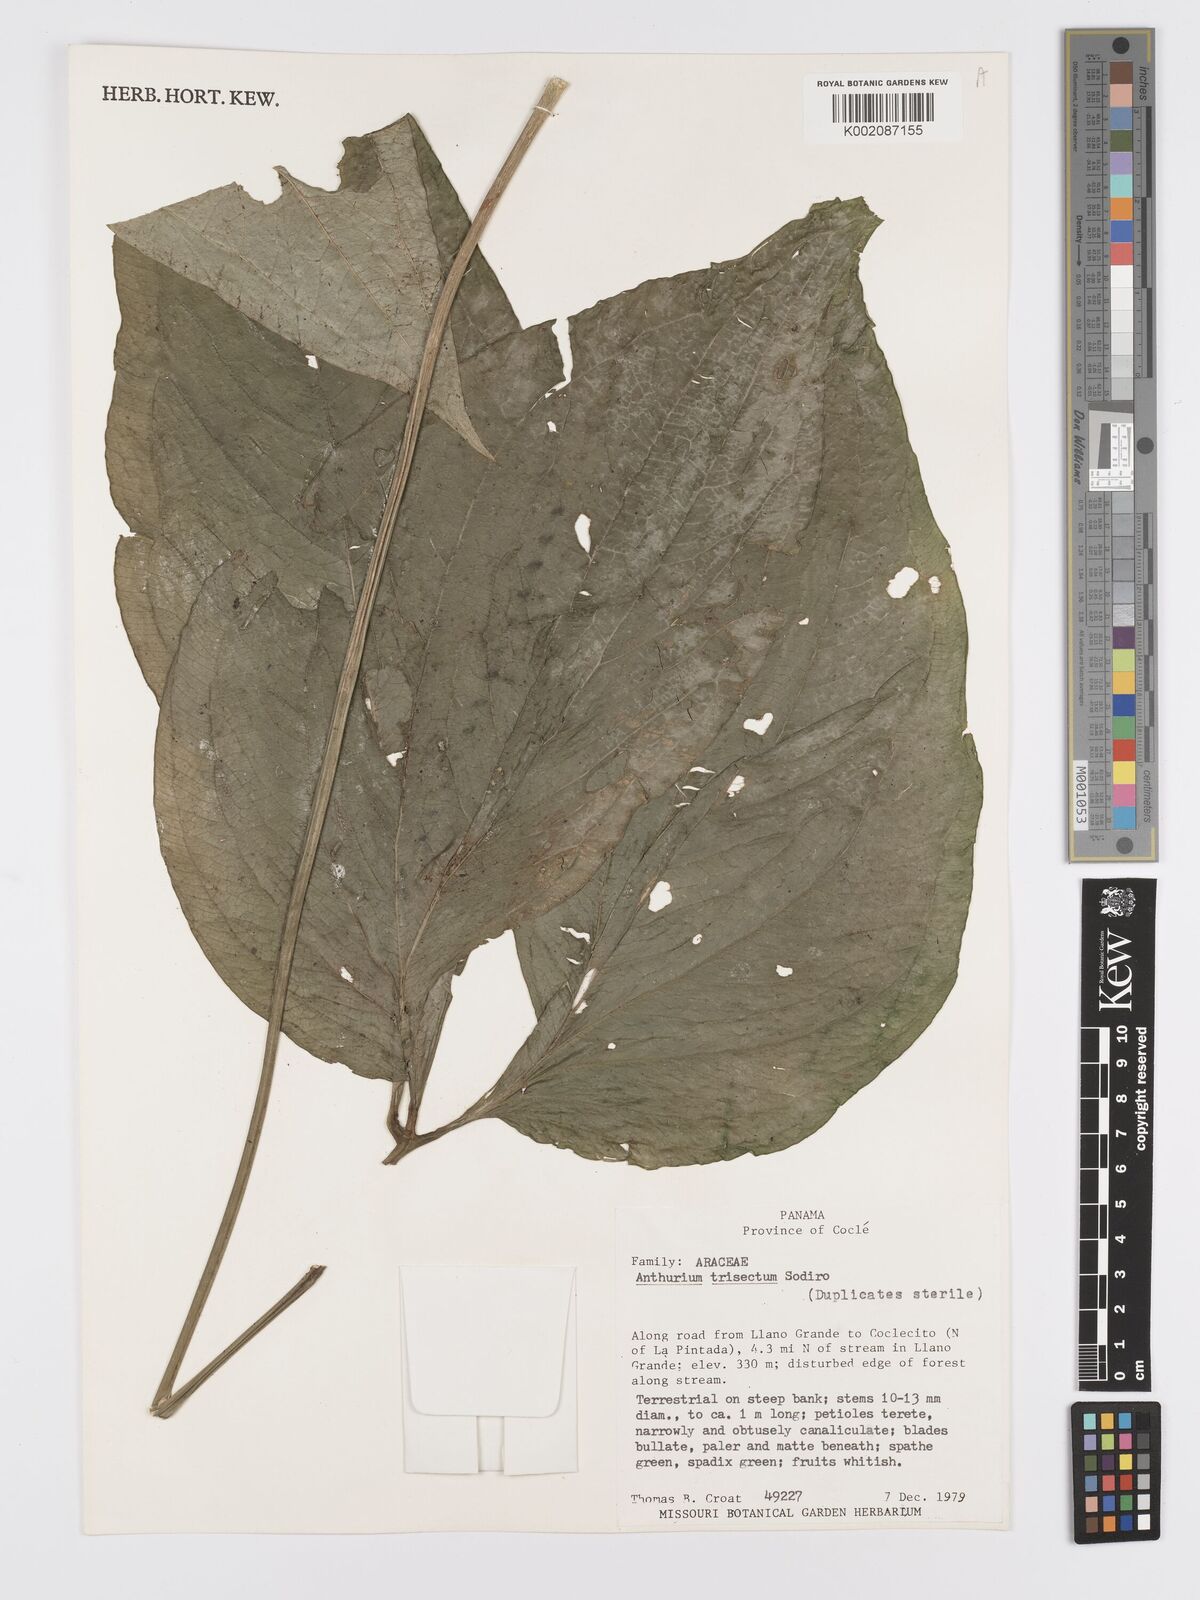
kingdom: Plantae
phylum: Tracheophyta
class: Liliopsida
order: Alismatales
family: Araceae
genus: Anthurium
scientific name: Anthurium trisectum
